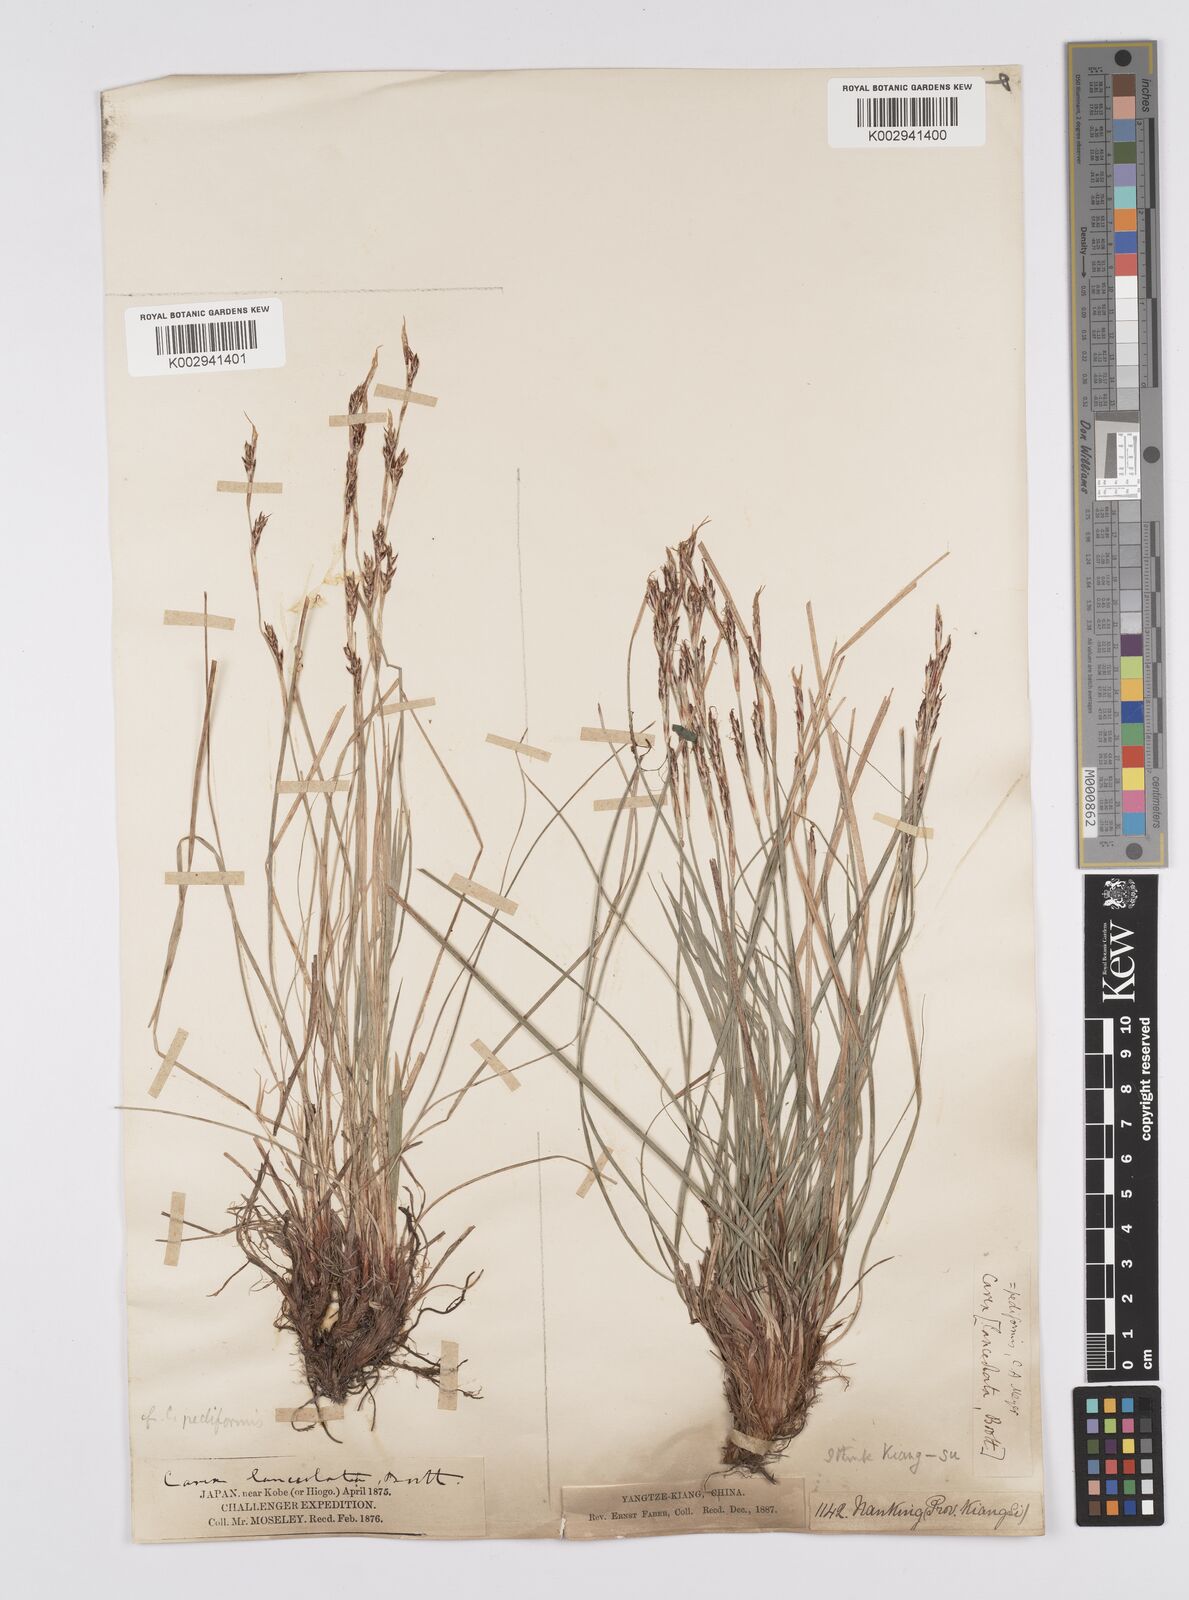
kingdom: Plantae
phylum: Tracheophyta
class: Liliopsida
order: Poales
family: Cyperaceae
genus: Carex
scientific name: Carex pediformis
